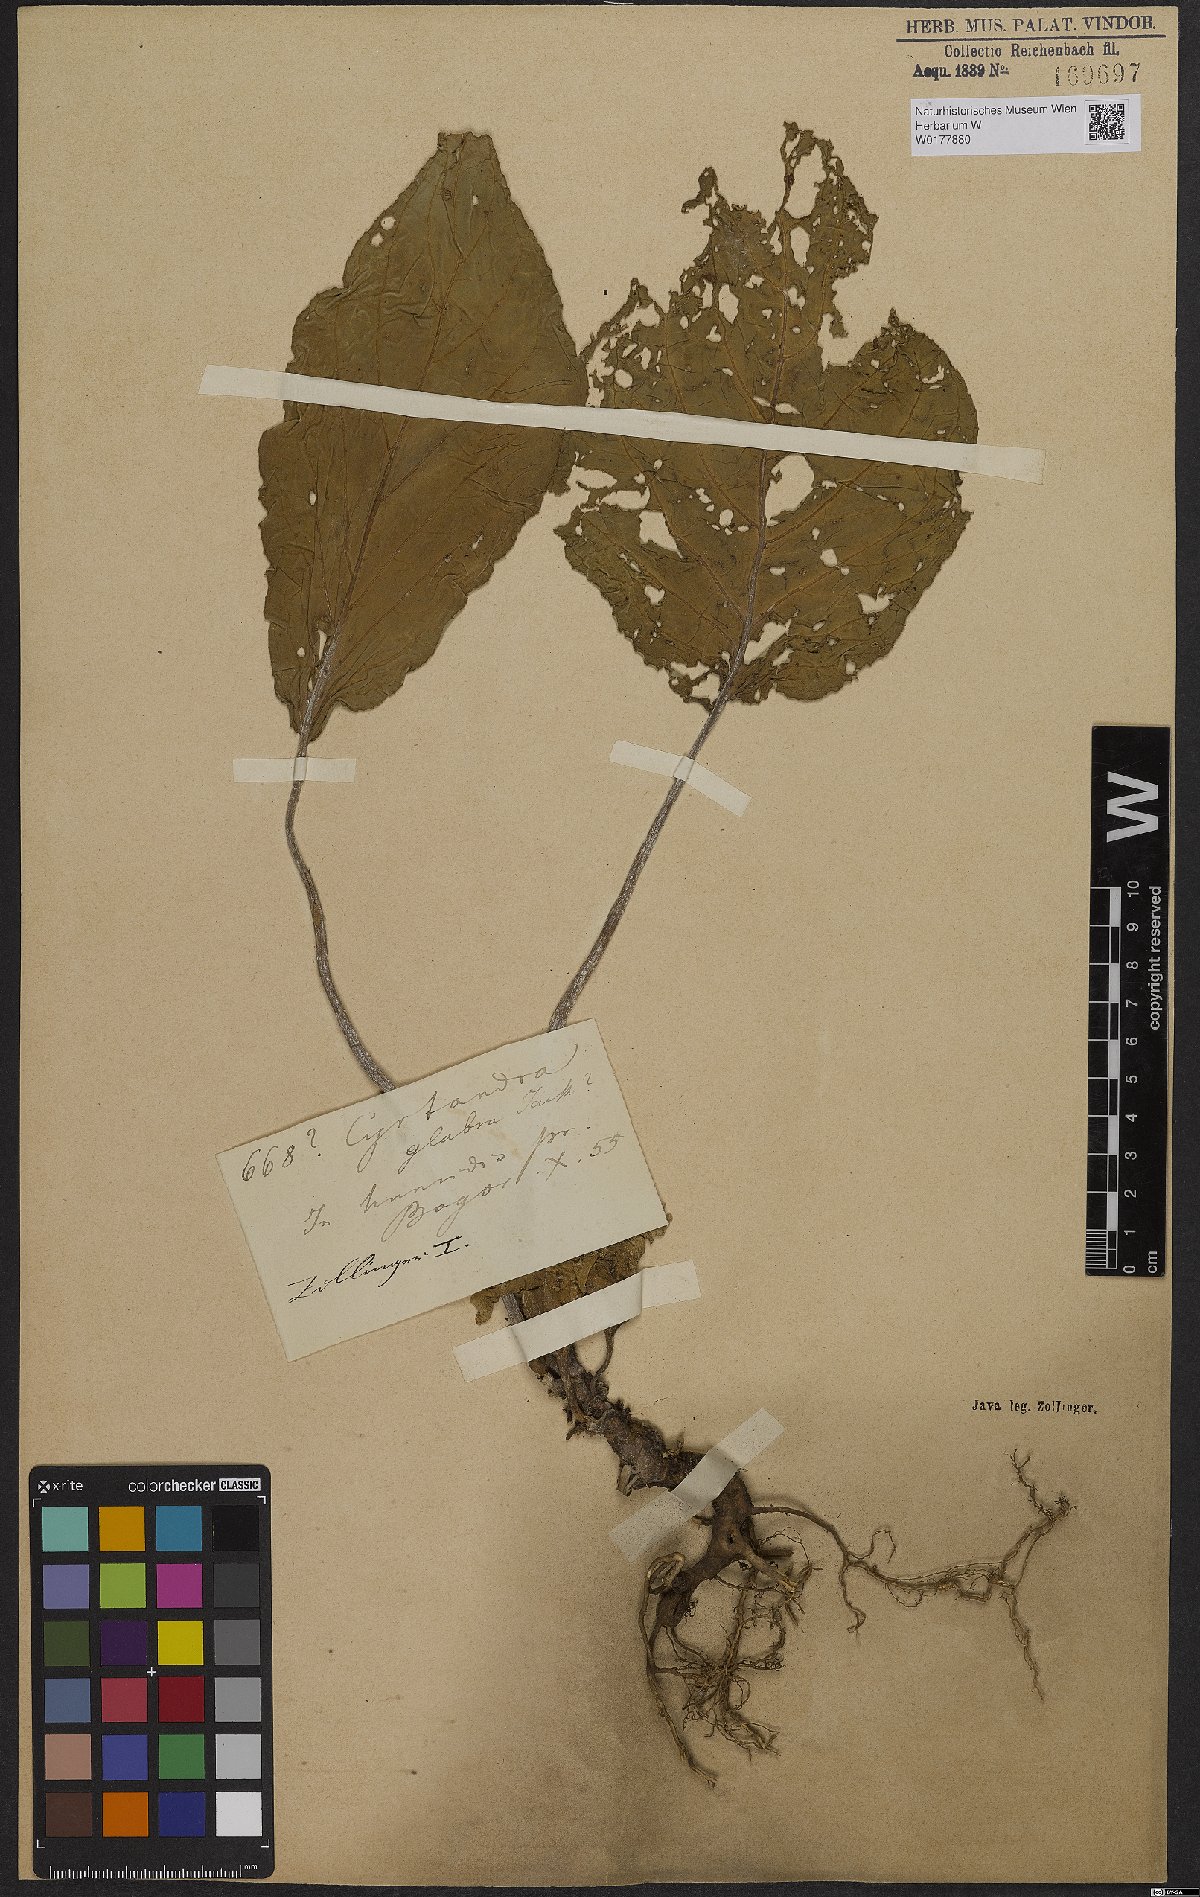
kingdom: Plantae
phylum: Tracheophyta
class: Magnoliopsida
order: Lamiales
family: Gesneriaceae
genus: Cyrtandra
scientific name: Cyrtandra jackii
